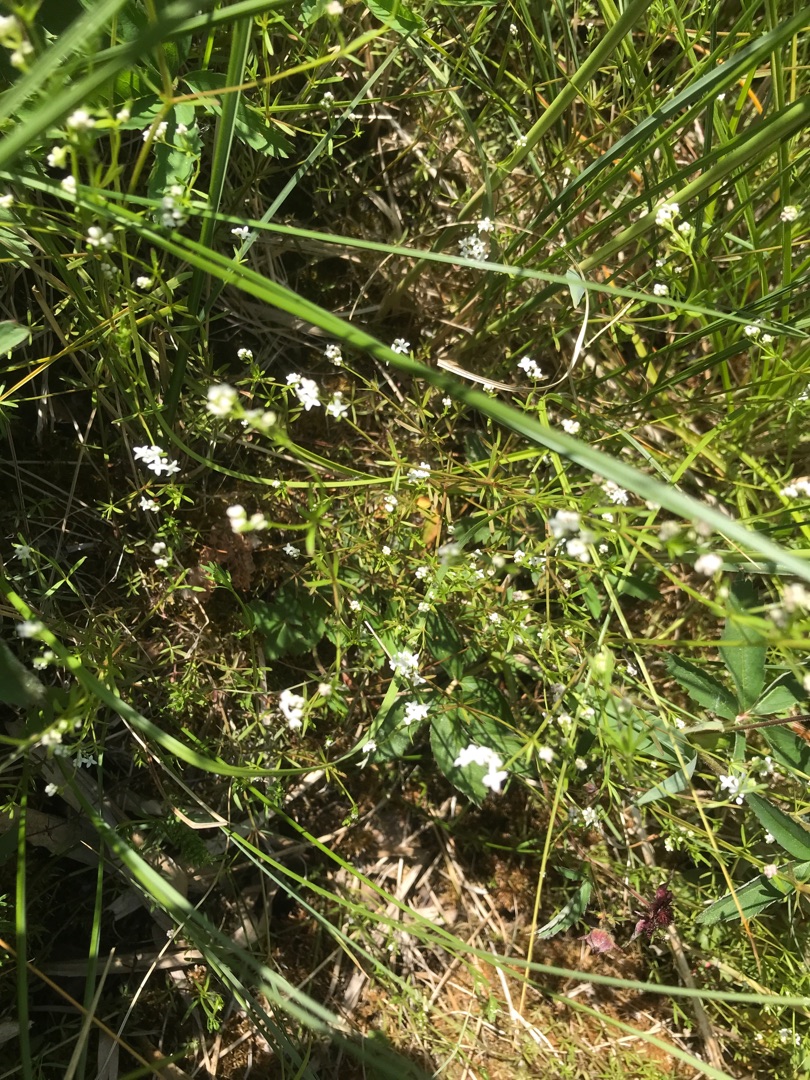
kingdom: Plantae
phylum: Tracheophyta
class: Magnoliopsida
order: Gentianales
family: Rubiaceae
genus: Galium
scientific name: Galium palustre
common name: Kær-snerre
